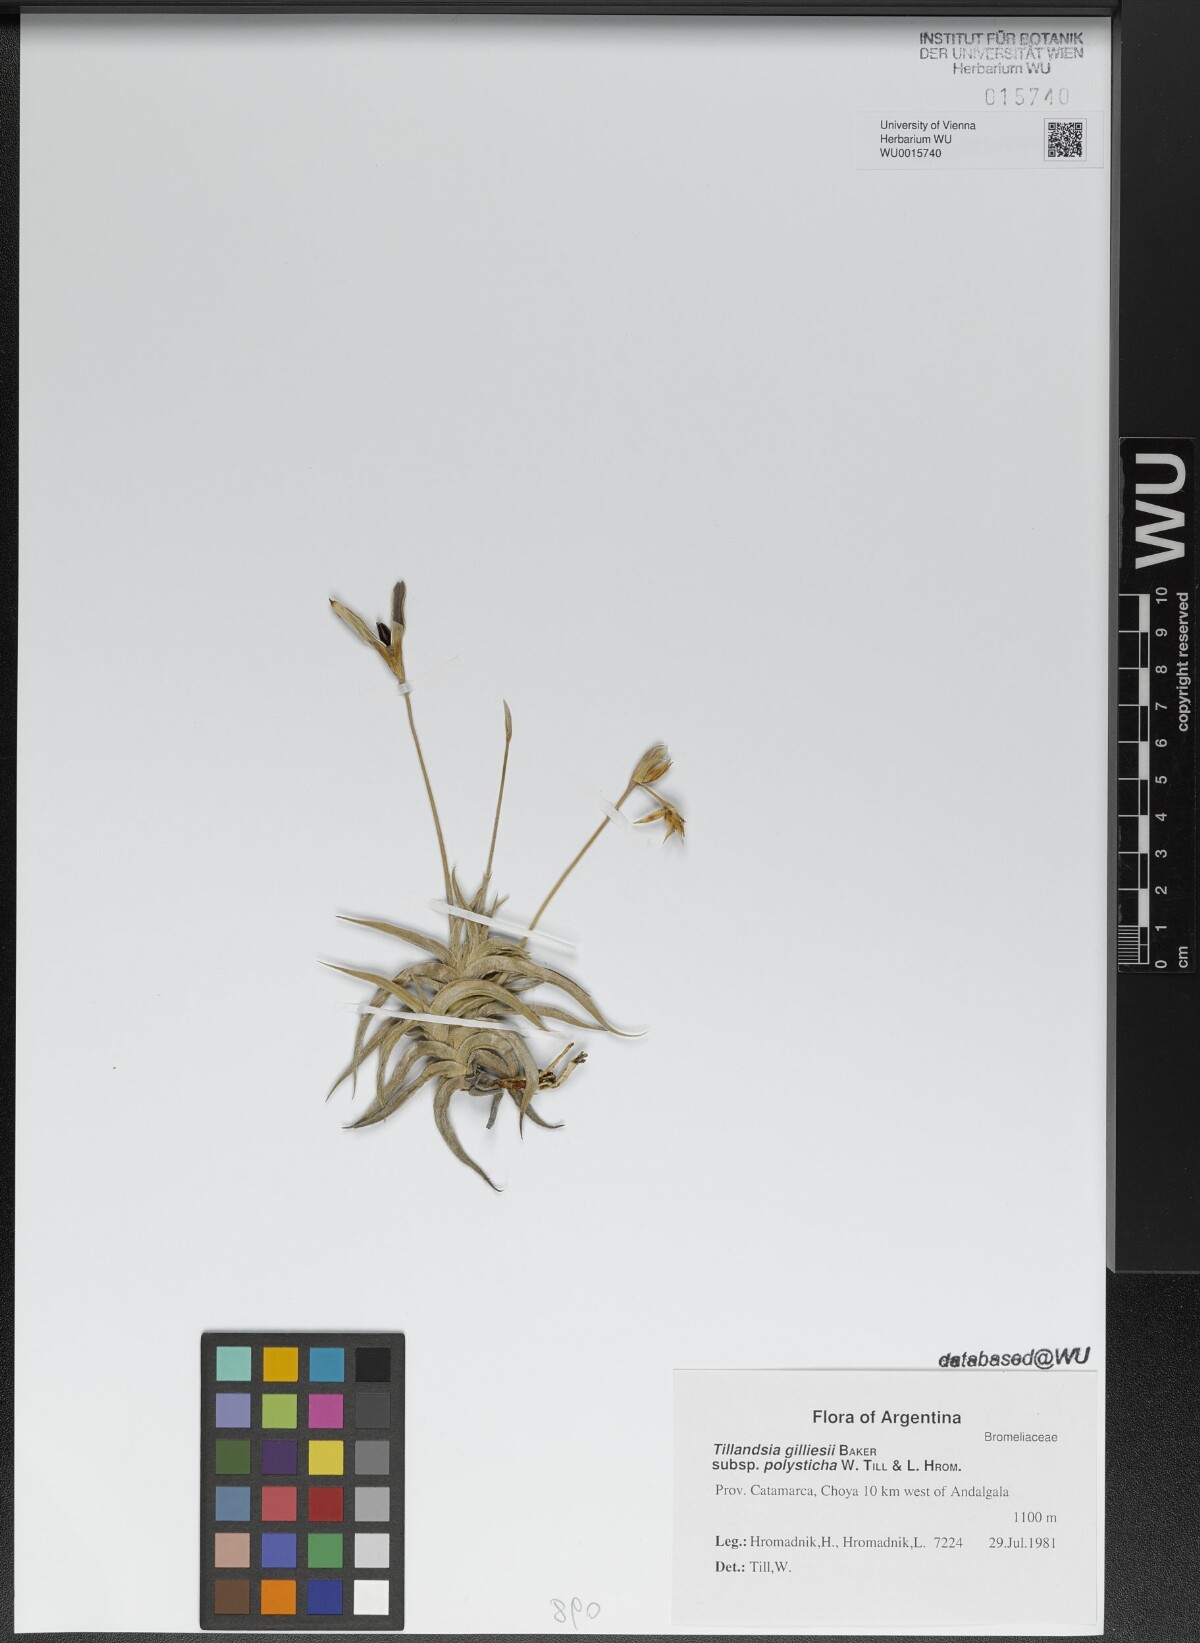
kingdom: Plantae
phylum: Tracheophyta
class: Liliopsida
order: Poales
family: Bromeliaceae
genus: Tillandsia
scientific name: Tillandsia gilliesii
